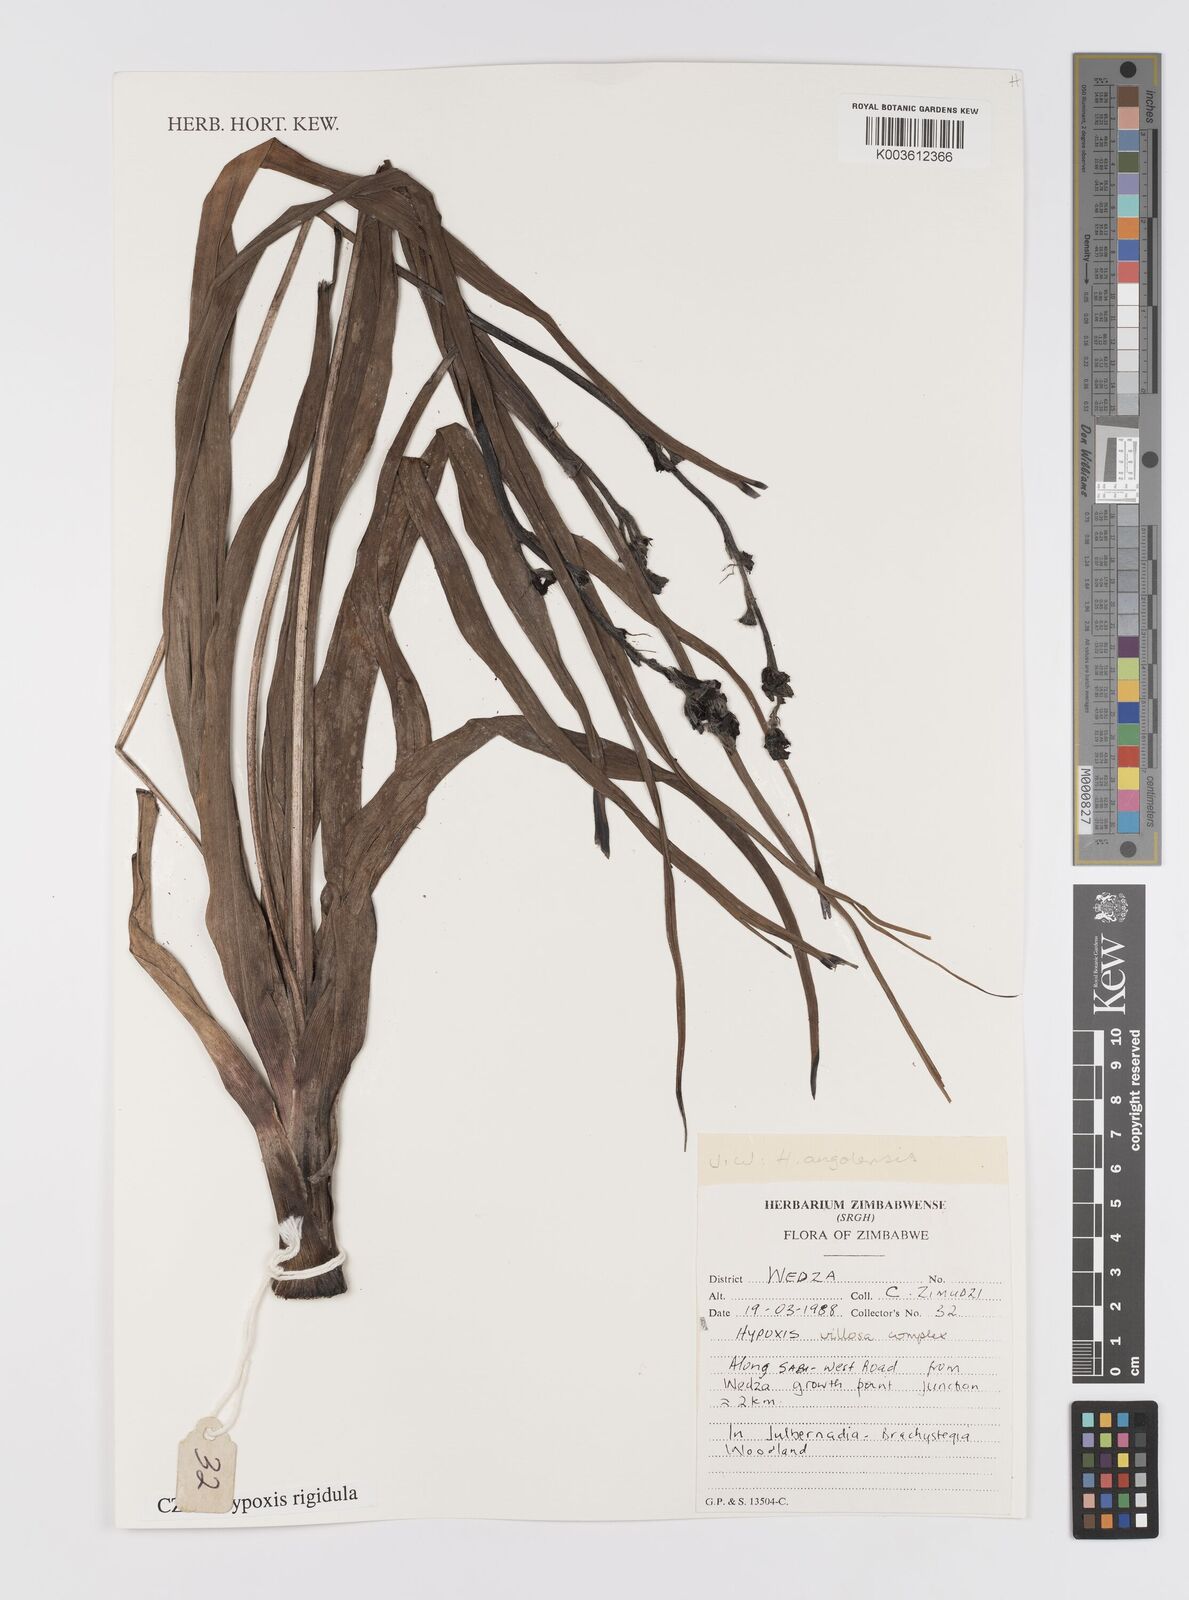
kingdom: Plantae
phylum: Tracheophyta
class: Liliopsida
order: Asparagales
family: Hypoxidaceae
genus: Hypoxis
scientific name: Hypoxis rigidula
